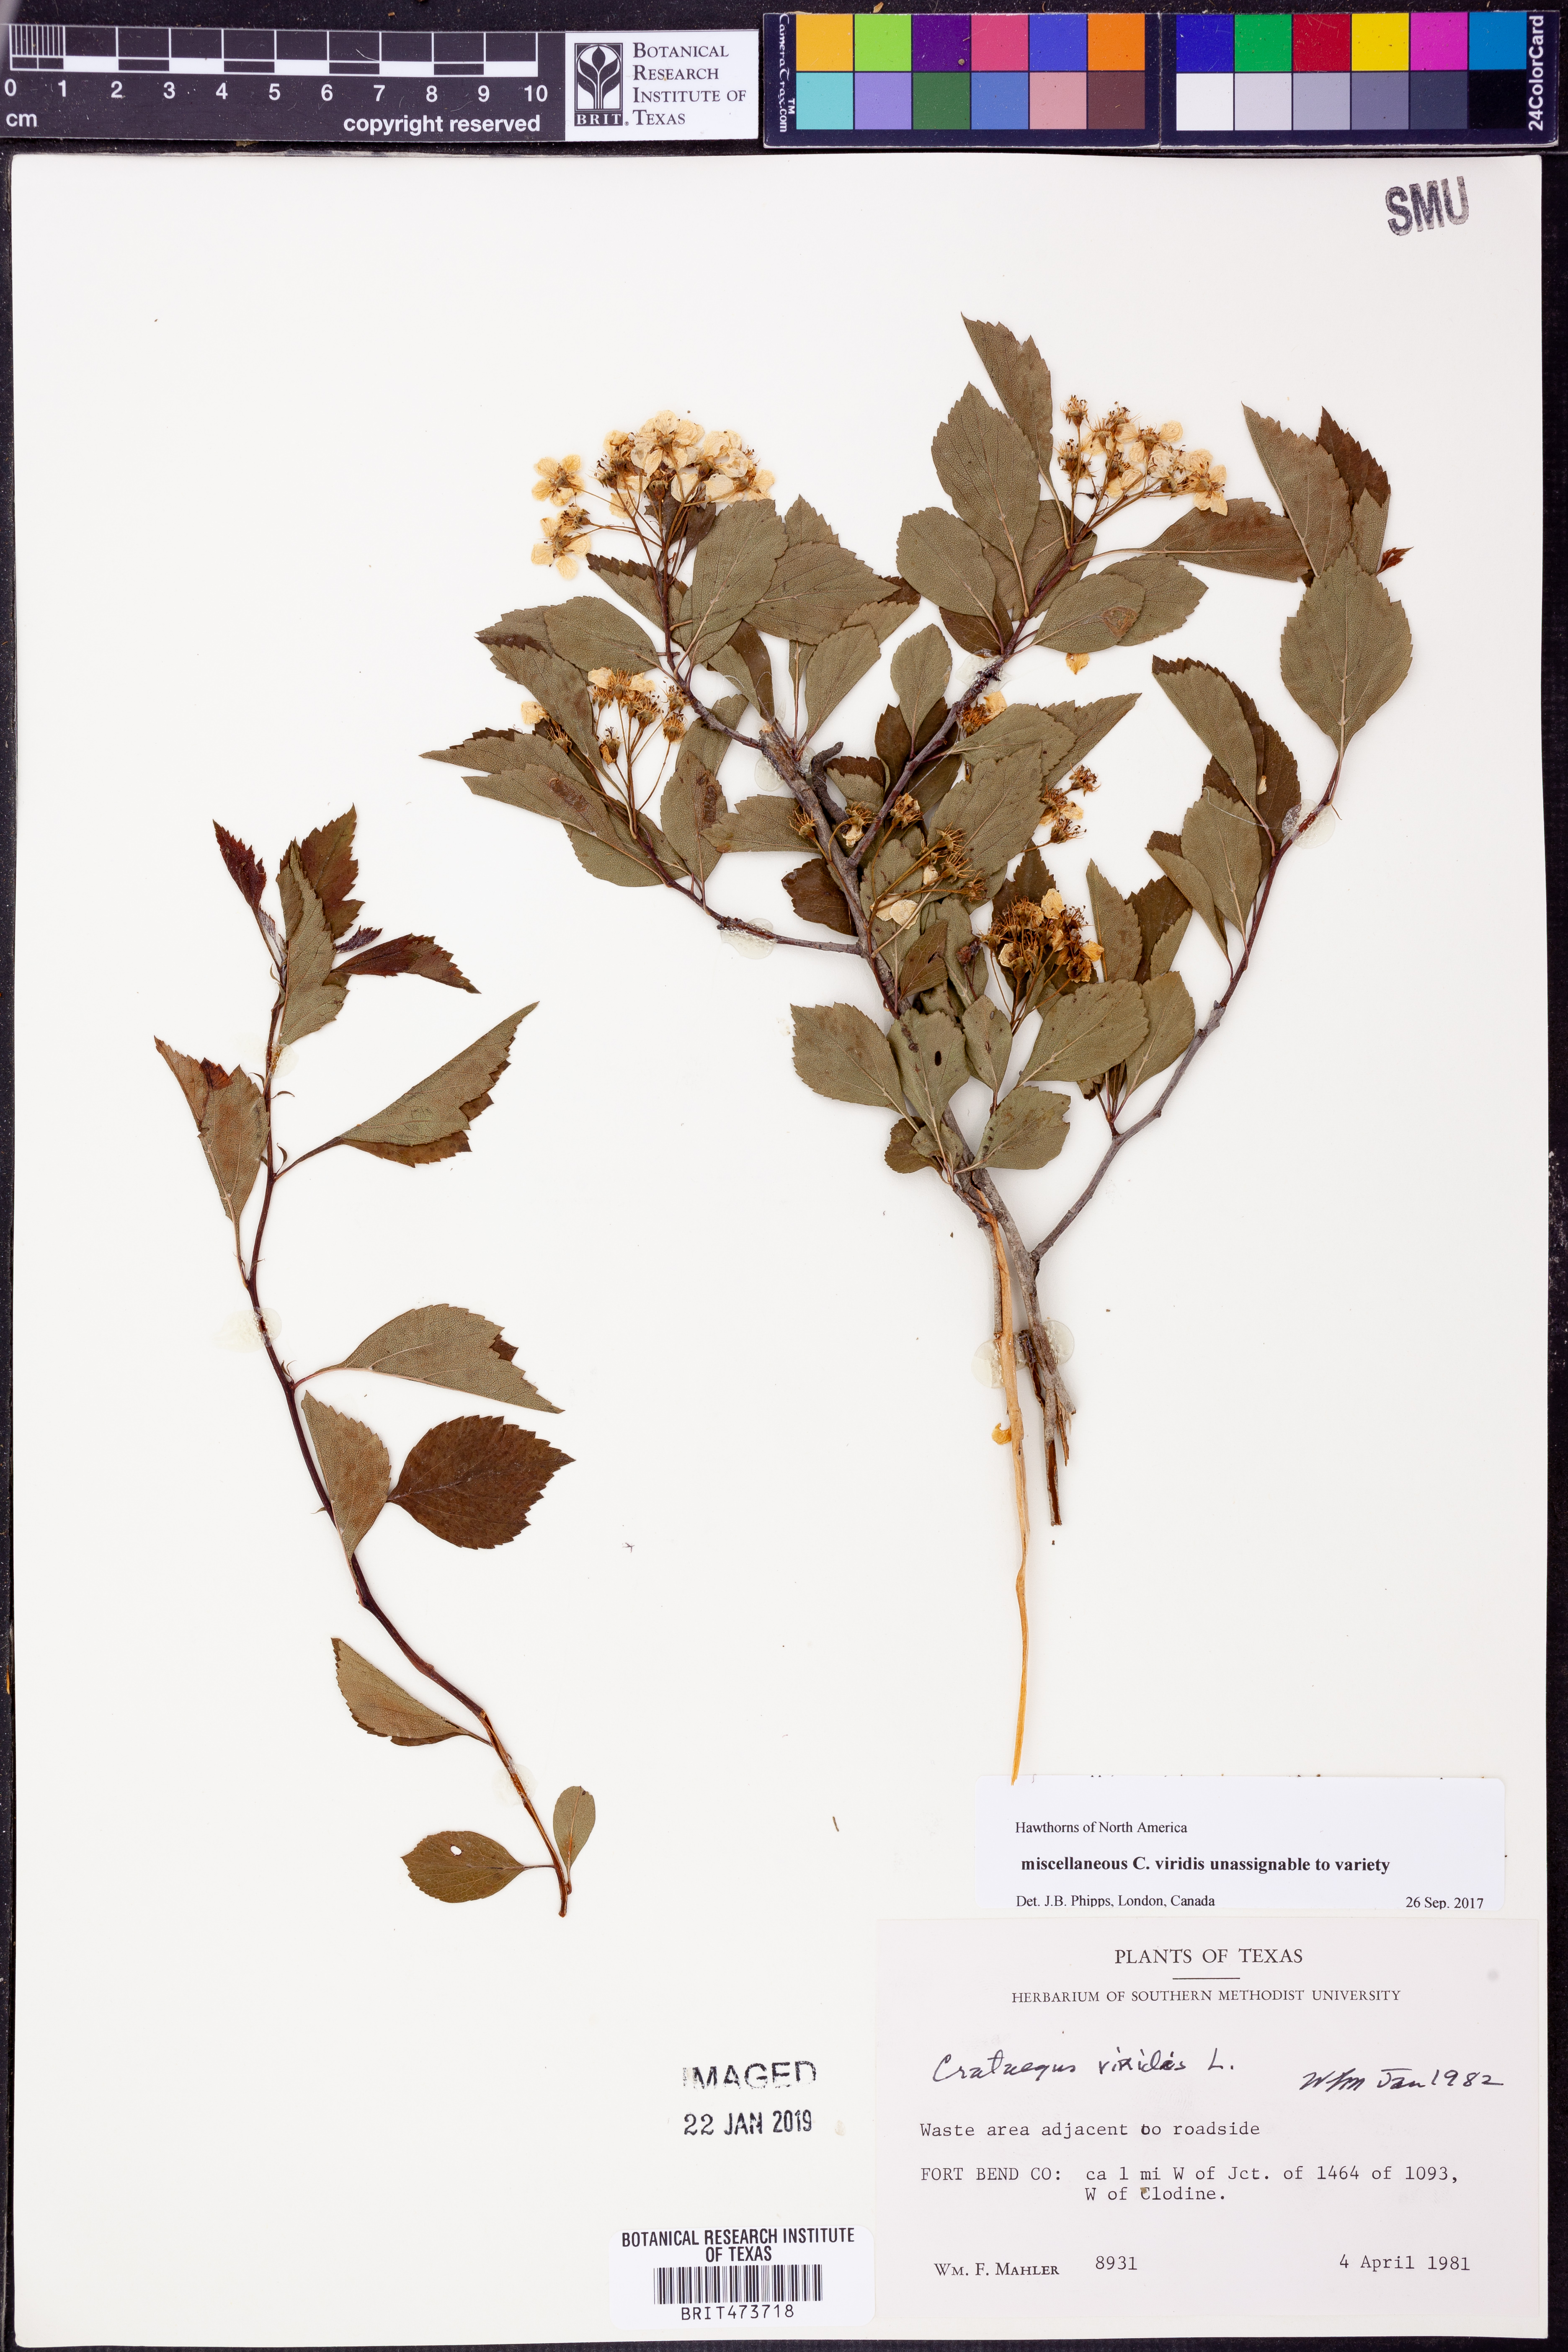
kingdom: Plantae
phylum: Tracheophyta
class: Magnoliopsida
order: Rosales
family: Rosaceae
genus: Crataegus
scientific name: Crataegus viridis
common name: Southernthorn
